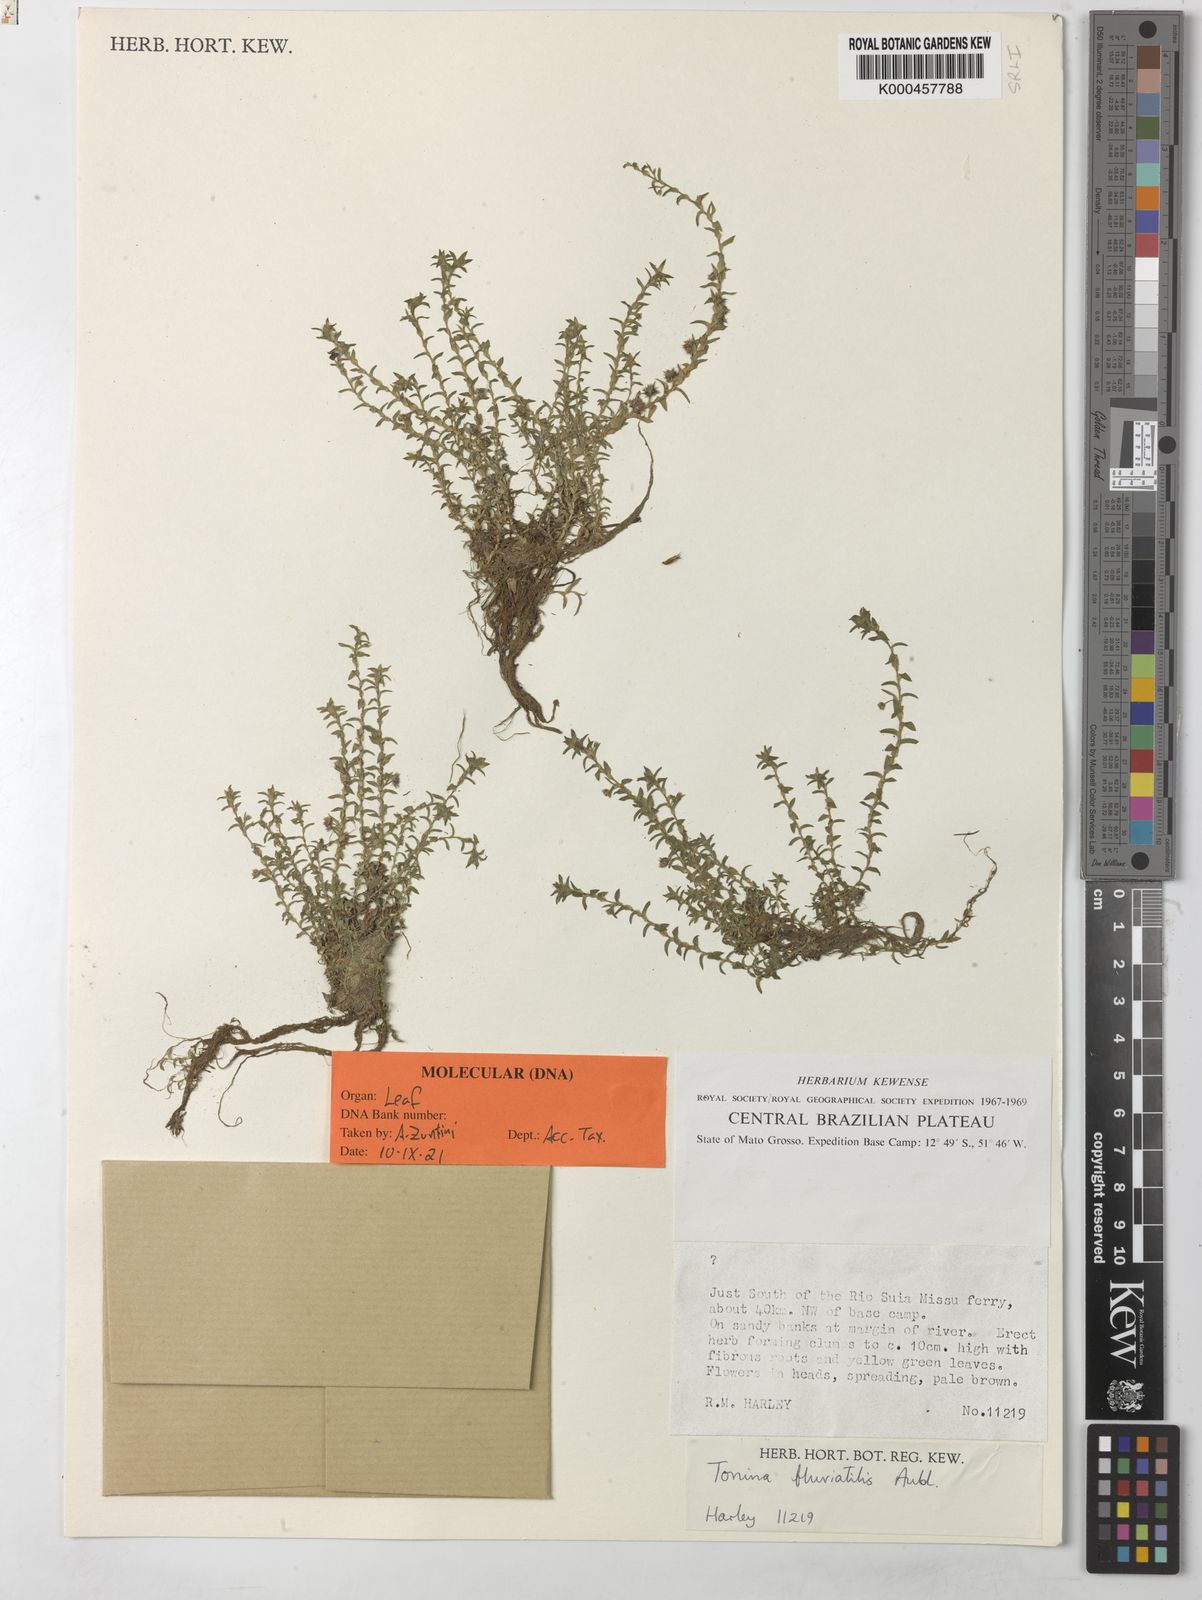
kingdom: Plantae
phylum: Tracheophyta
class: Liliopsida
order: Poales
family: Eriocaulaceae
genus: Paepalanthus
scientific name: Paepalanthus fluviatilis
